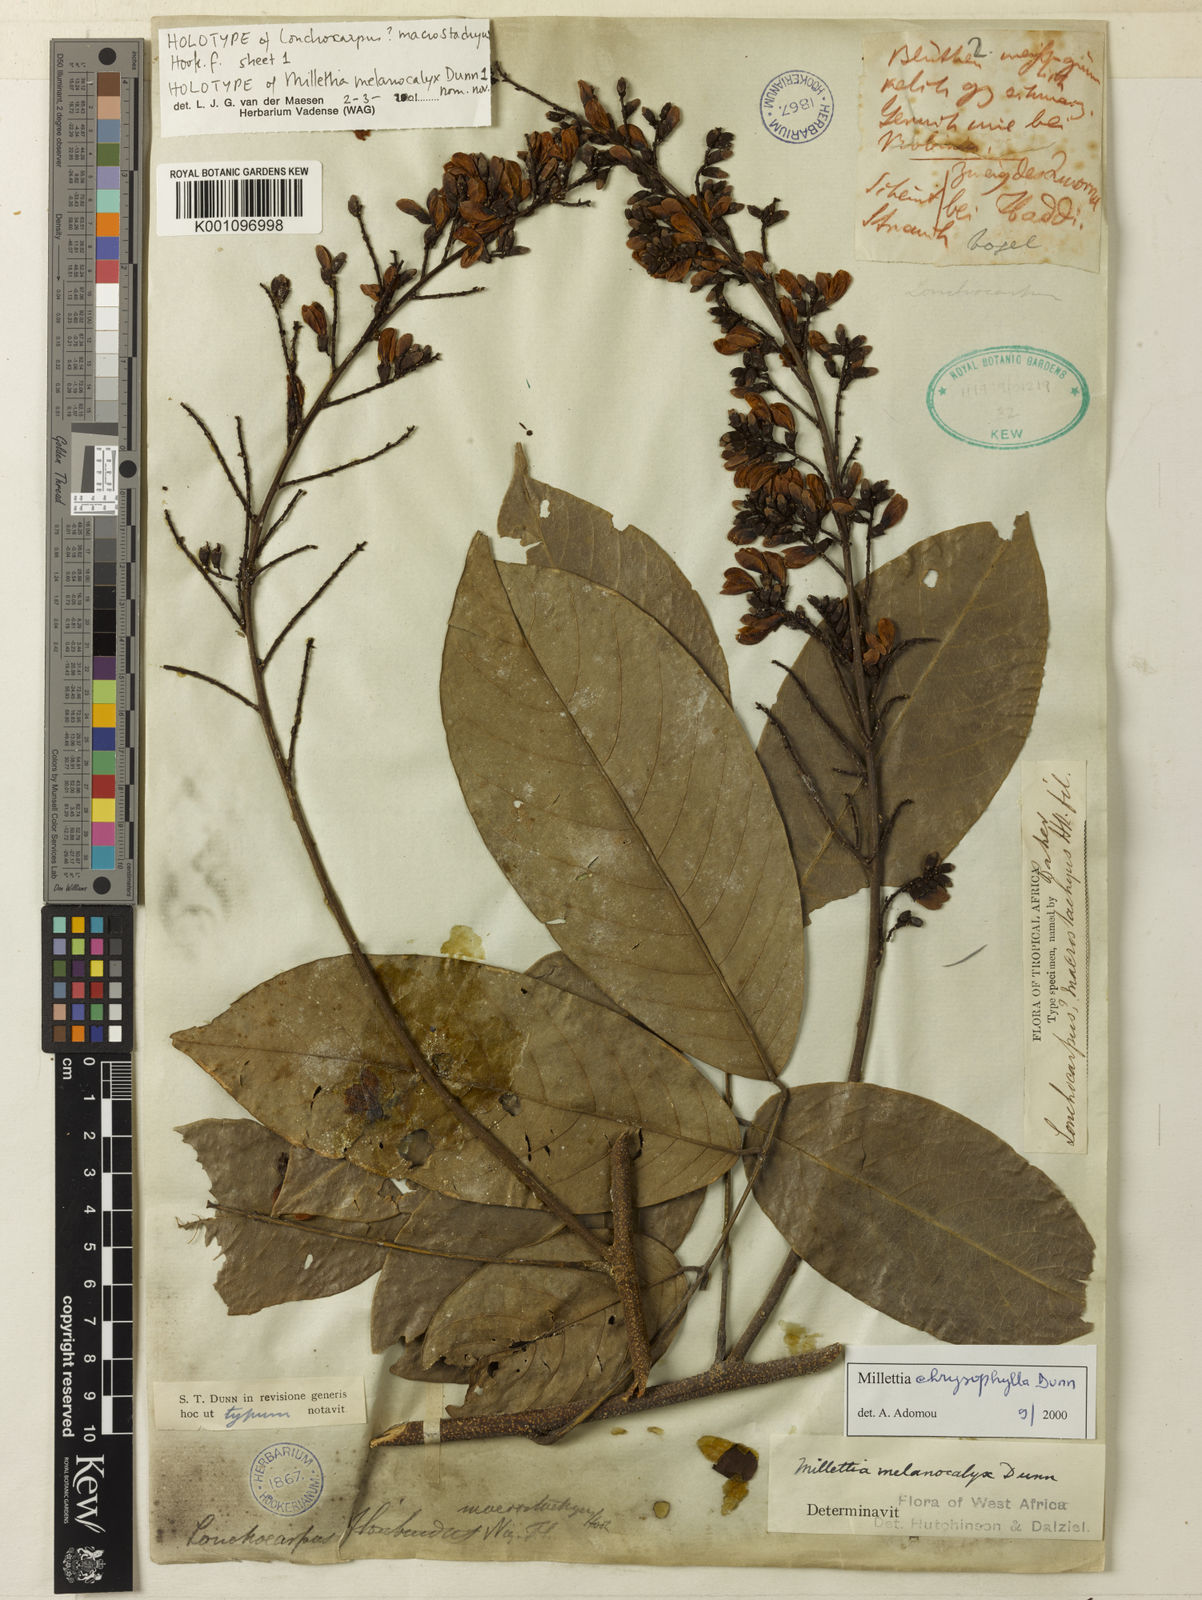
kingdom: Plantae
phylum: Tracheophyta
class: Magnoliopsida
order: Fabales
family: Fabaceae
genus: Millettia
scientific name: Millettia chrysophylla
